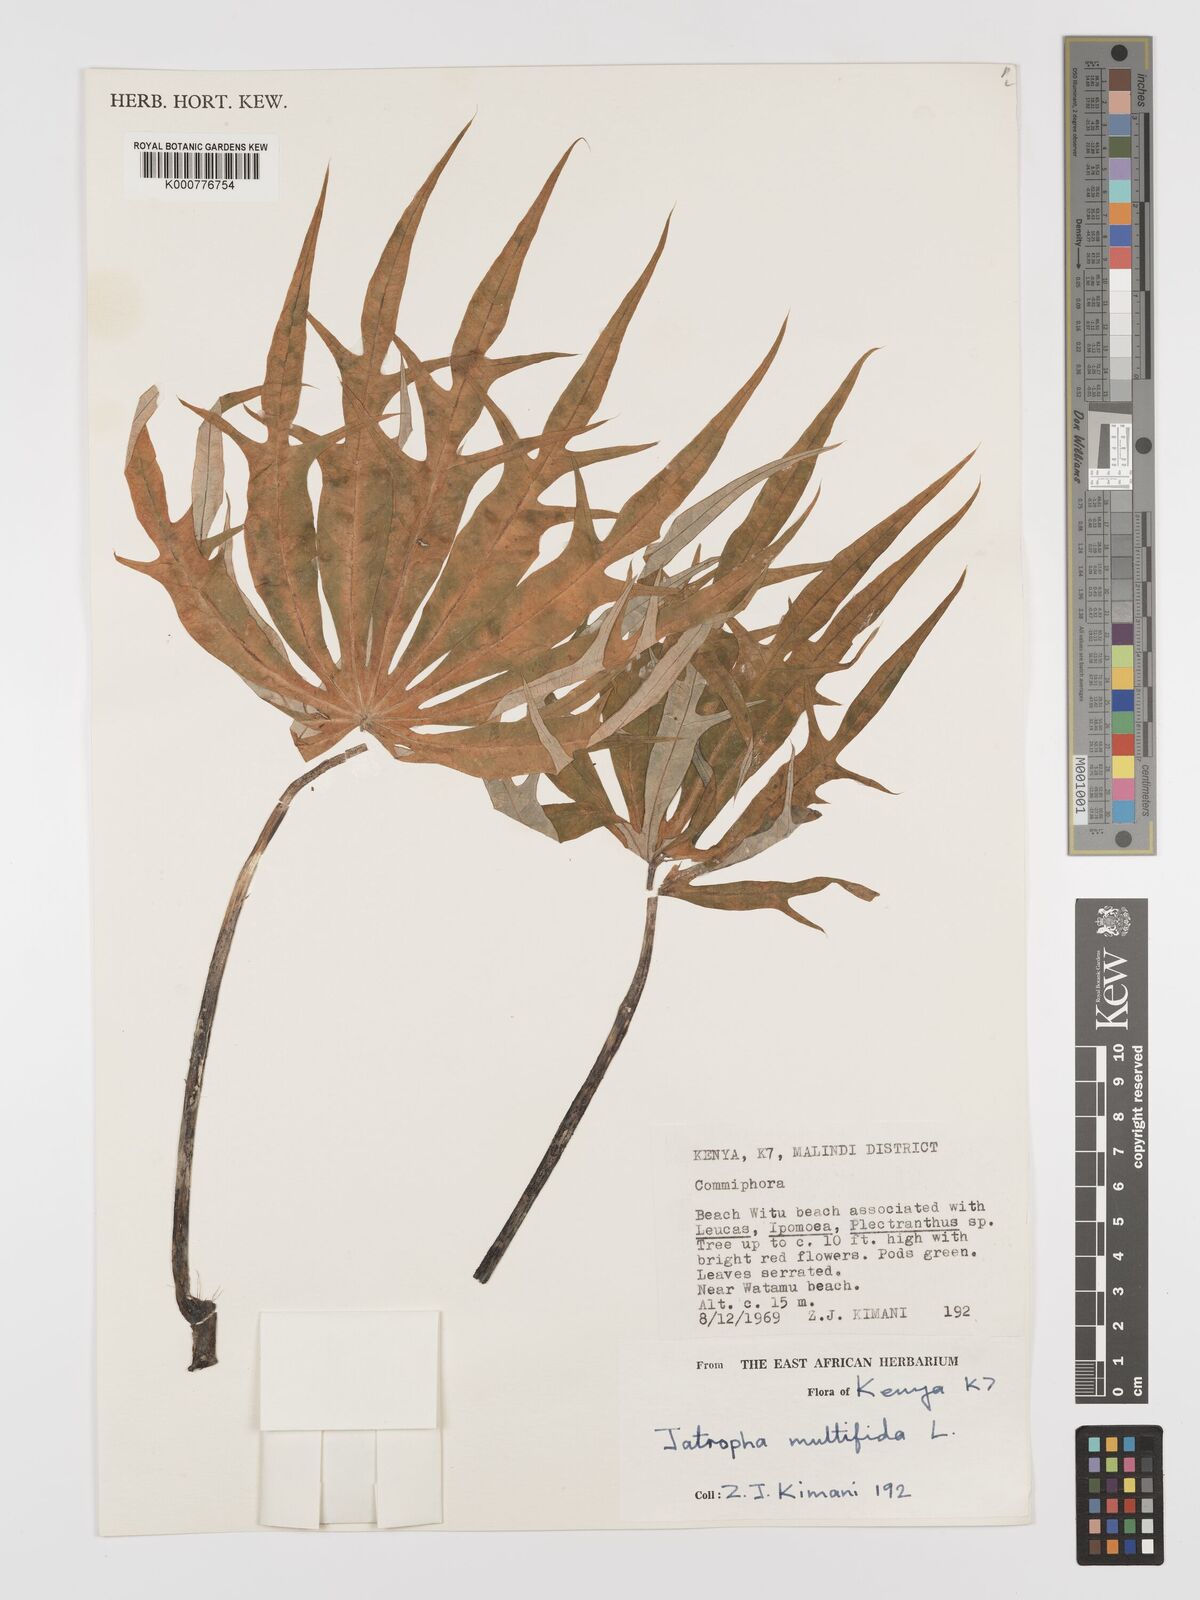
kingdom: Plantae
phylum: Tracheophyta
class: Magnoliopsida
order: Malpighiales
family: Euphorbiaceae
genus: Jatropha
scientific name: Jatropha multifida
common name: Coralbush
